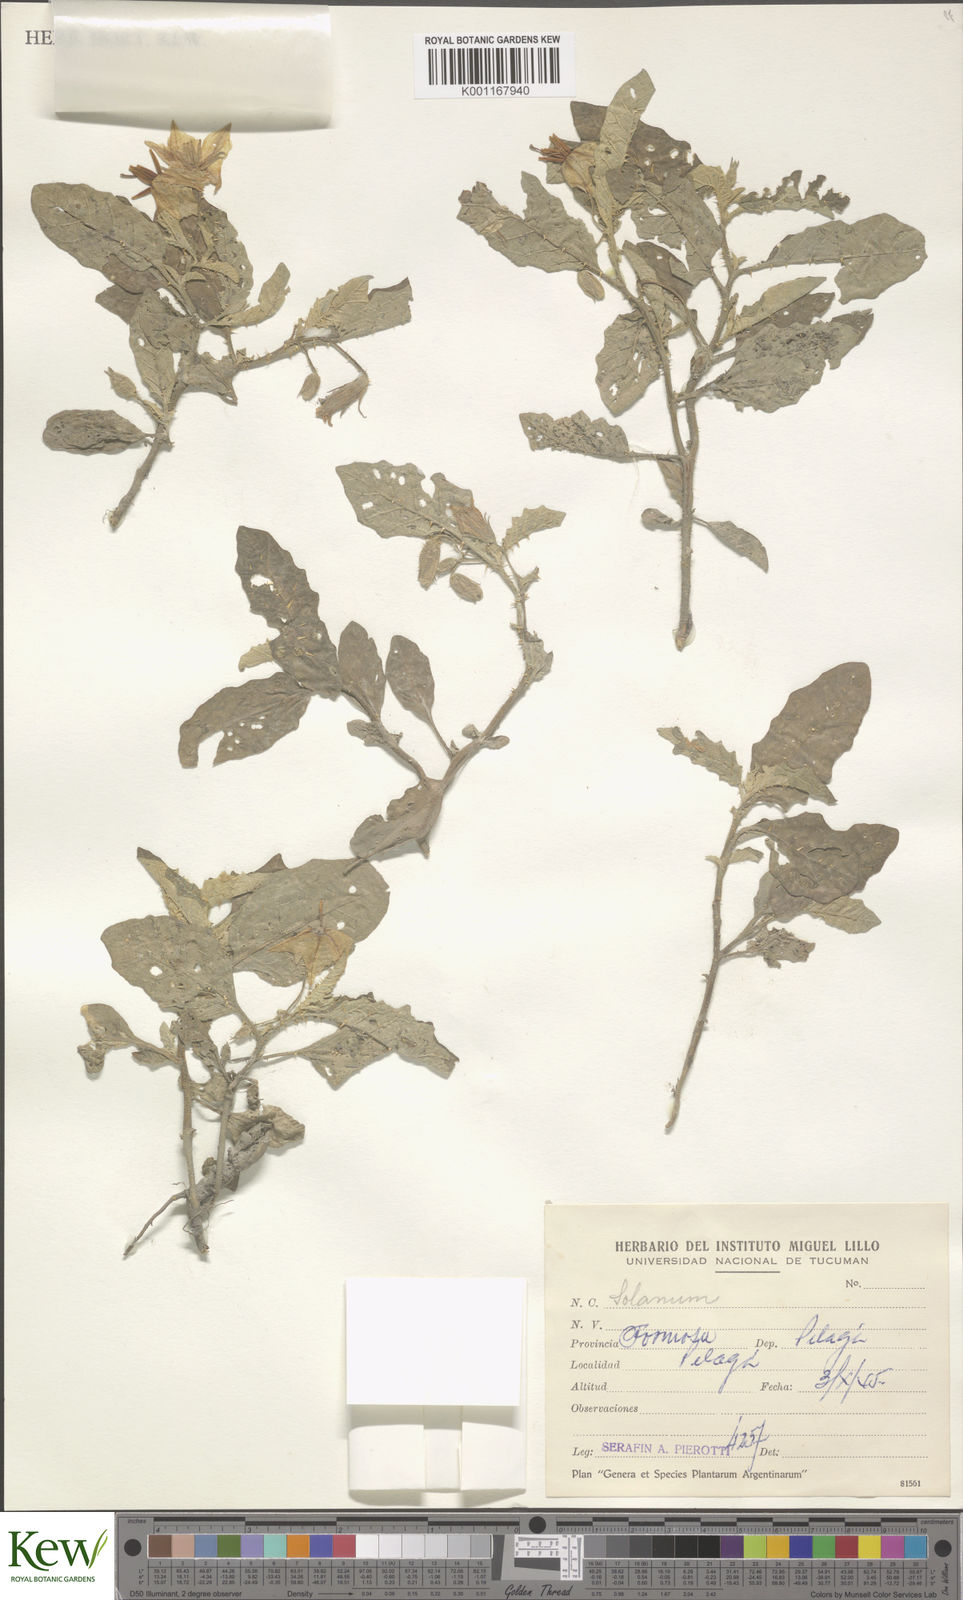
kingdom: Plantae
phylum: Tracheophyta
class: Magnoliopsida
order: Solanales
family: Solanaceae
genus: Solanum
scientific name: Solanum
